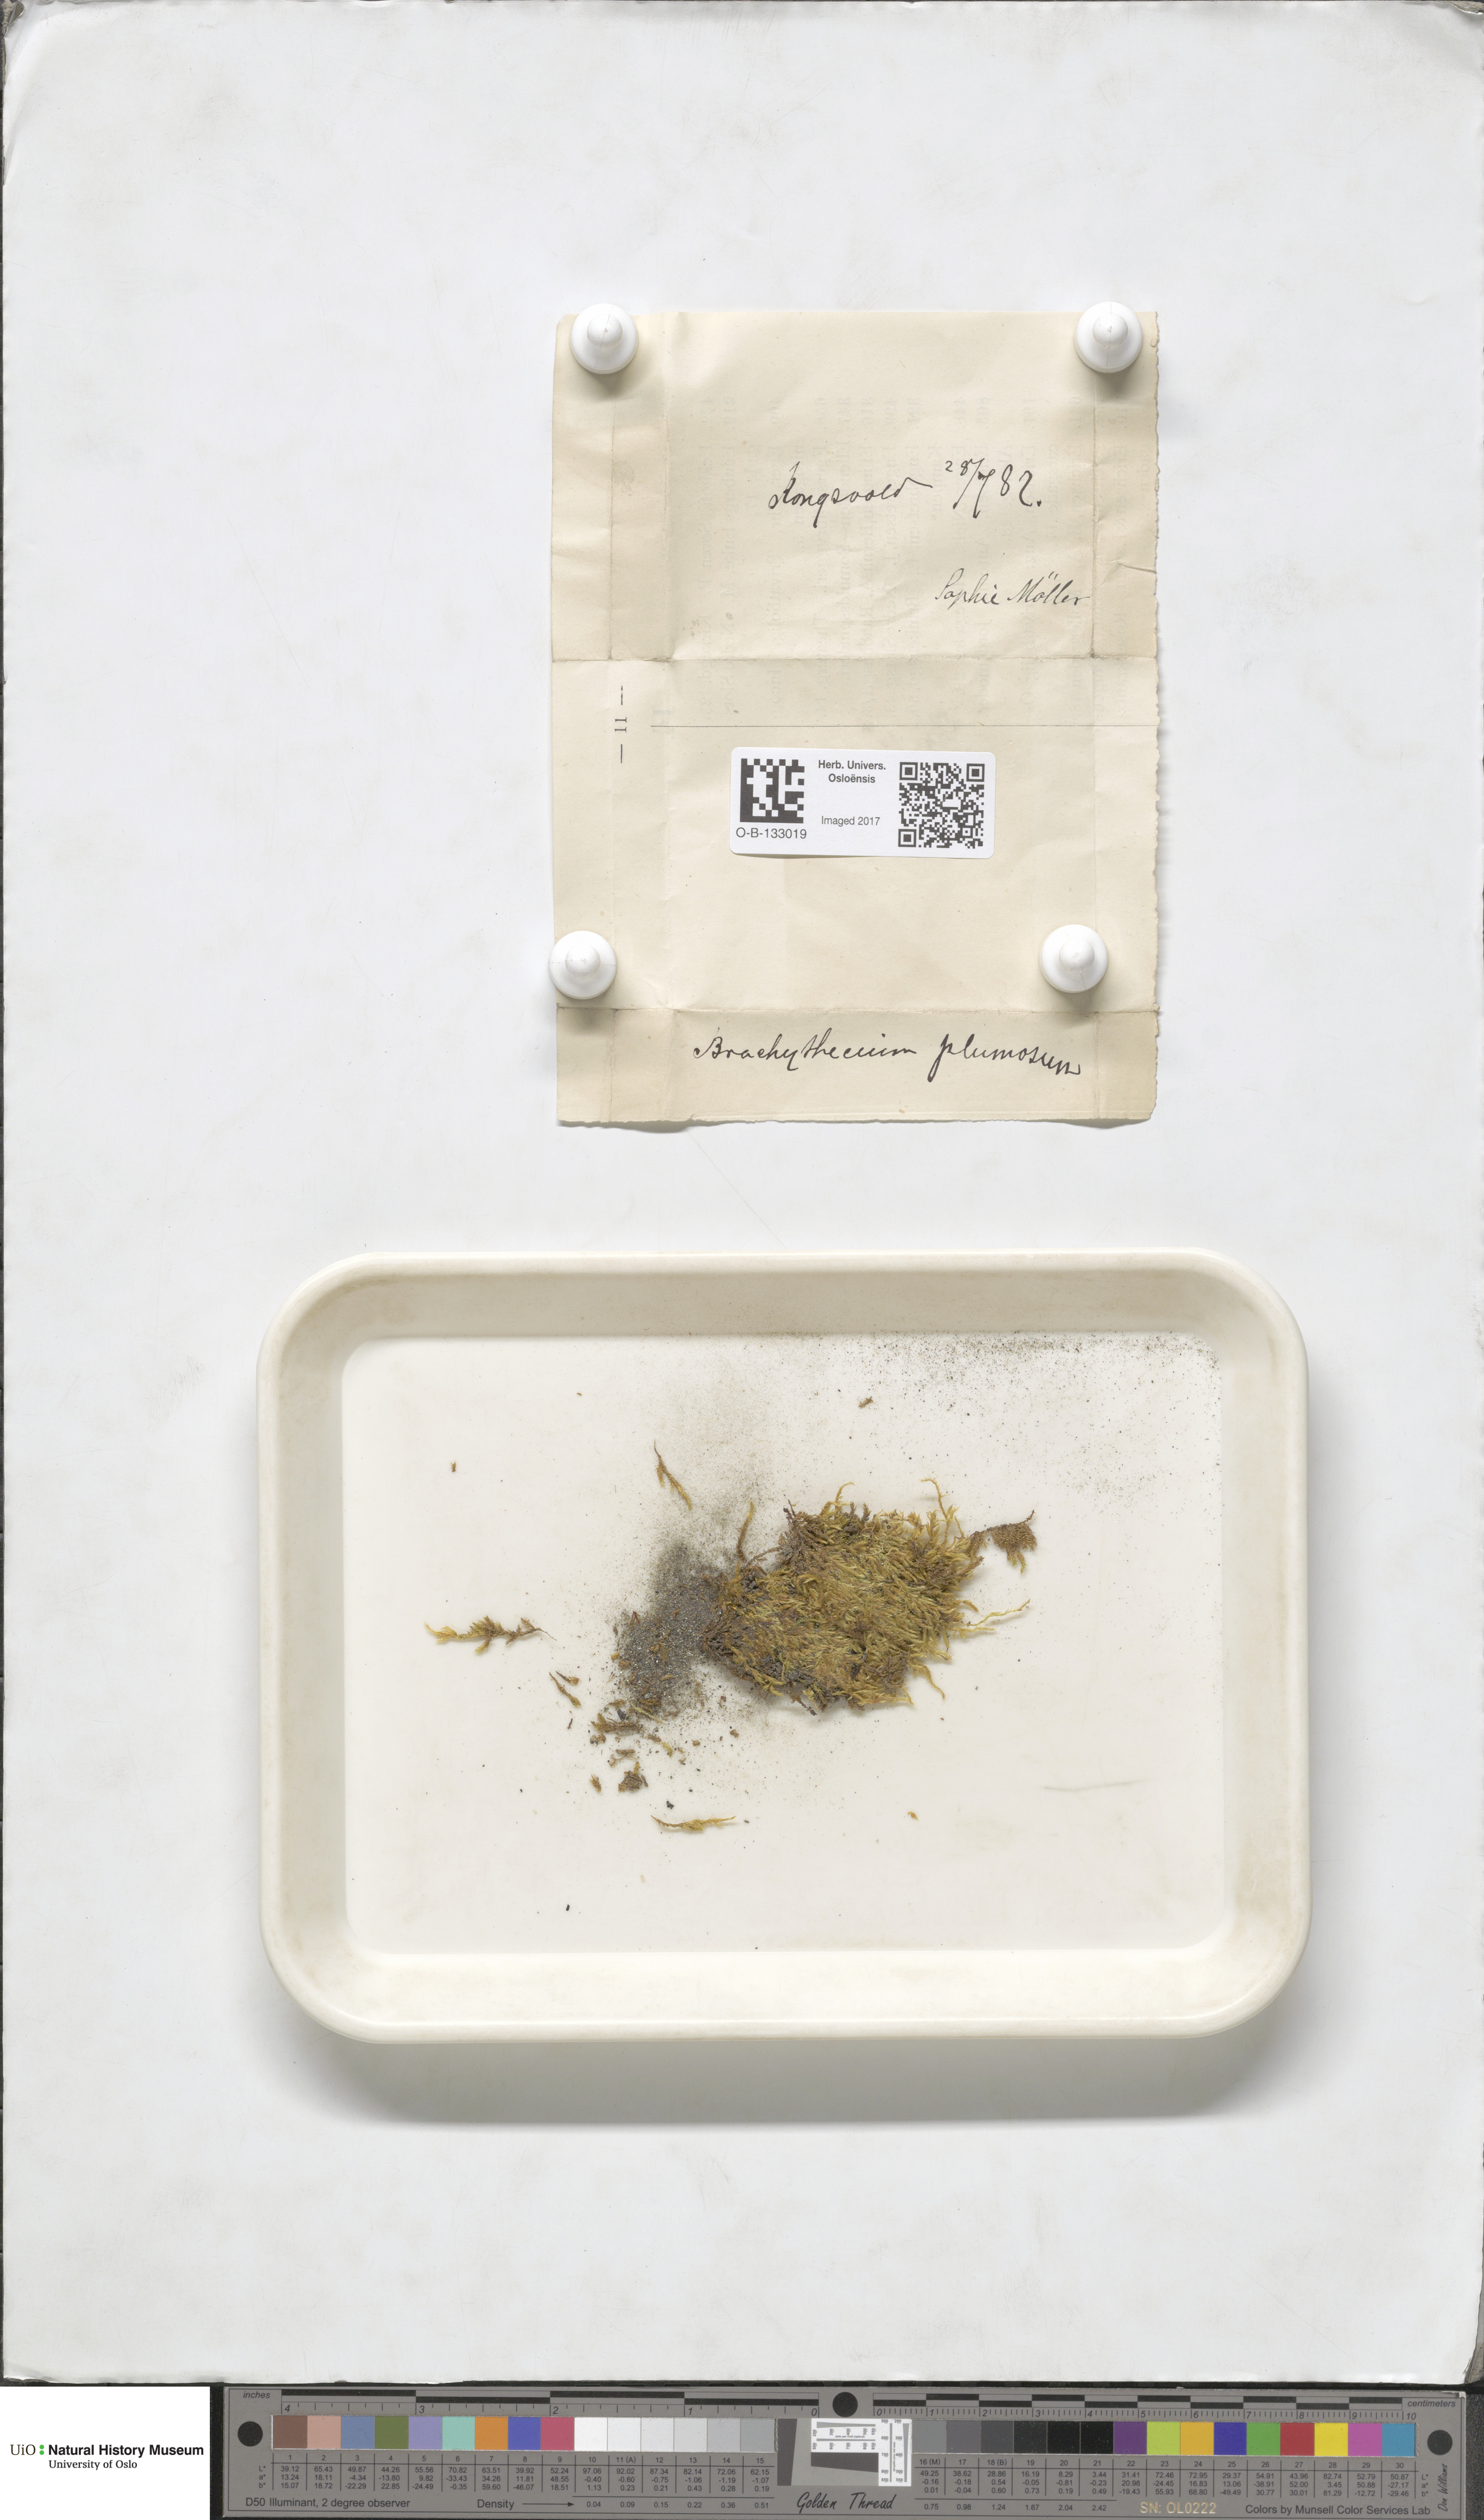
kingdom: Plantae
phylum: Bryophyta
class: Bryopsida
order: Hypnales
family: Brachytheciaceae
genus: Sciuro-hypnum
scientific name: Sciuro-hypnum plumosum
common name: Rusty feather-moss
